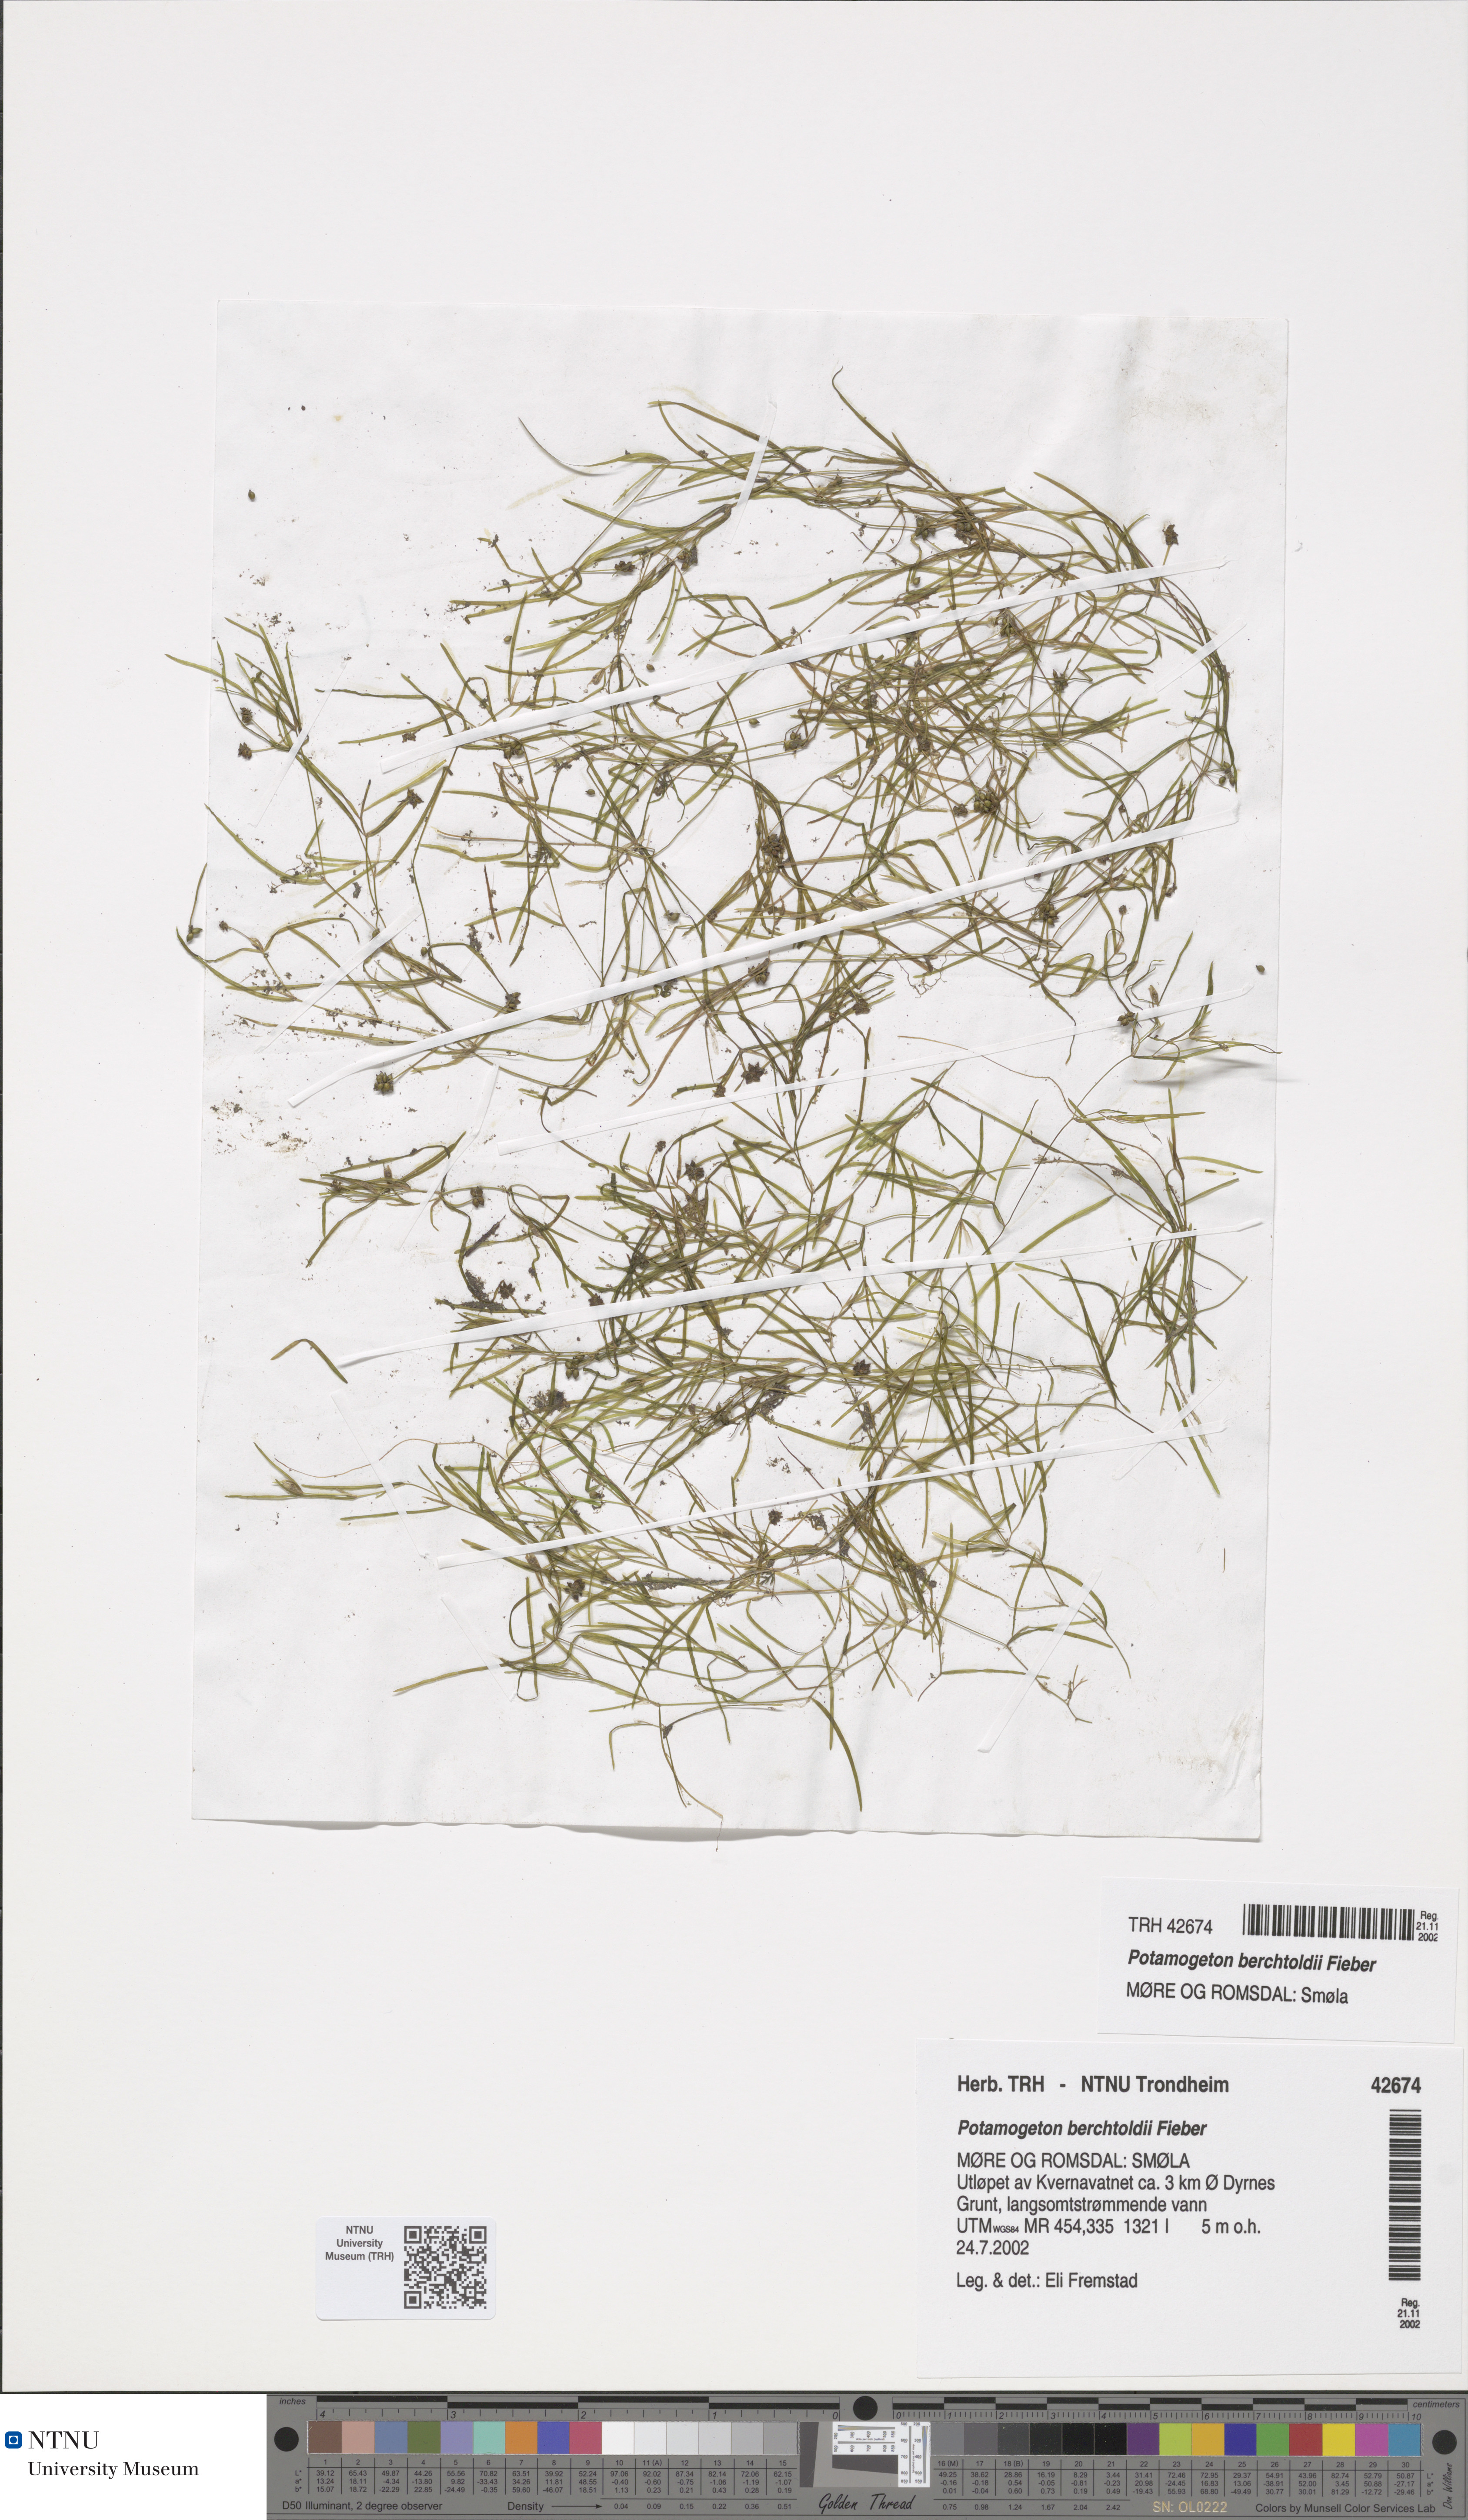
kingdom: Plantae
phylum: Tracheophyta
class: Liliopsida
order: Alismatales
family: Potamogetonaceae
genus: Potamogeton
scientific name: Potamogeton berchtoldii
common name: Small pondweed
